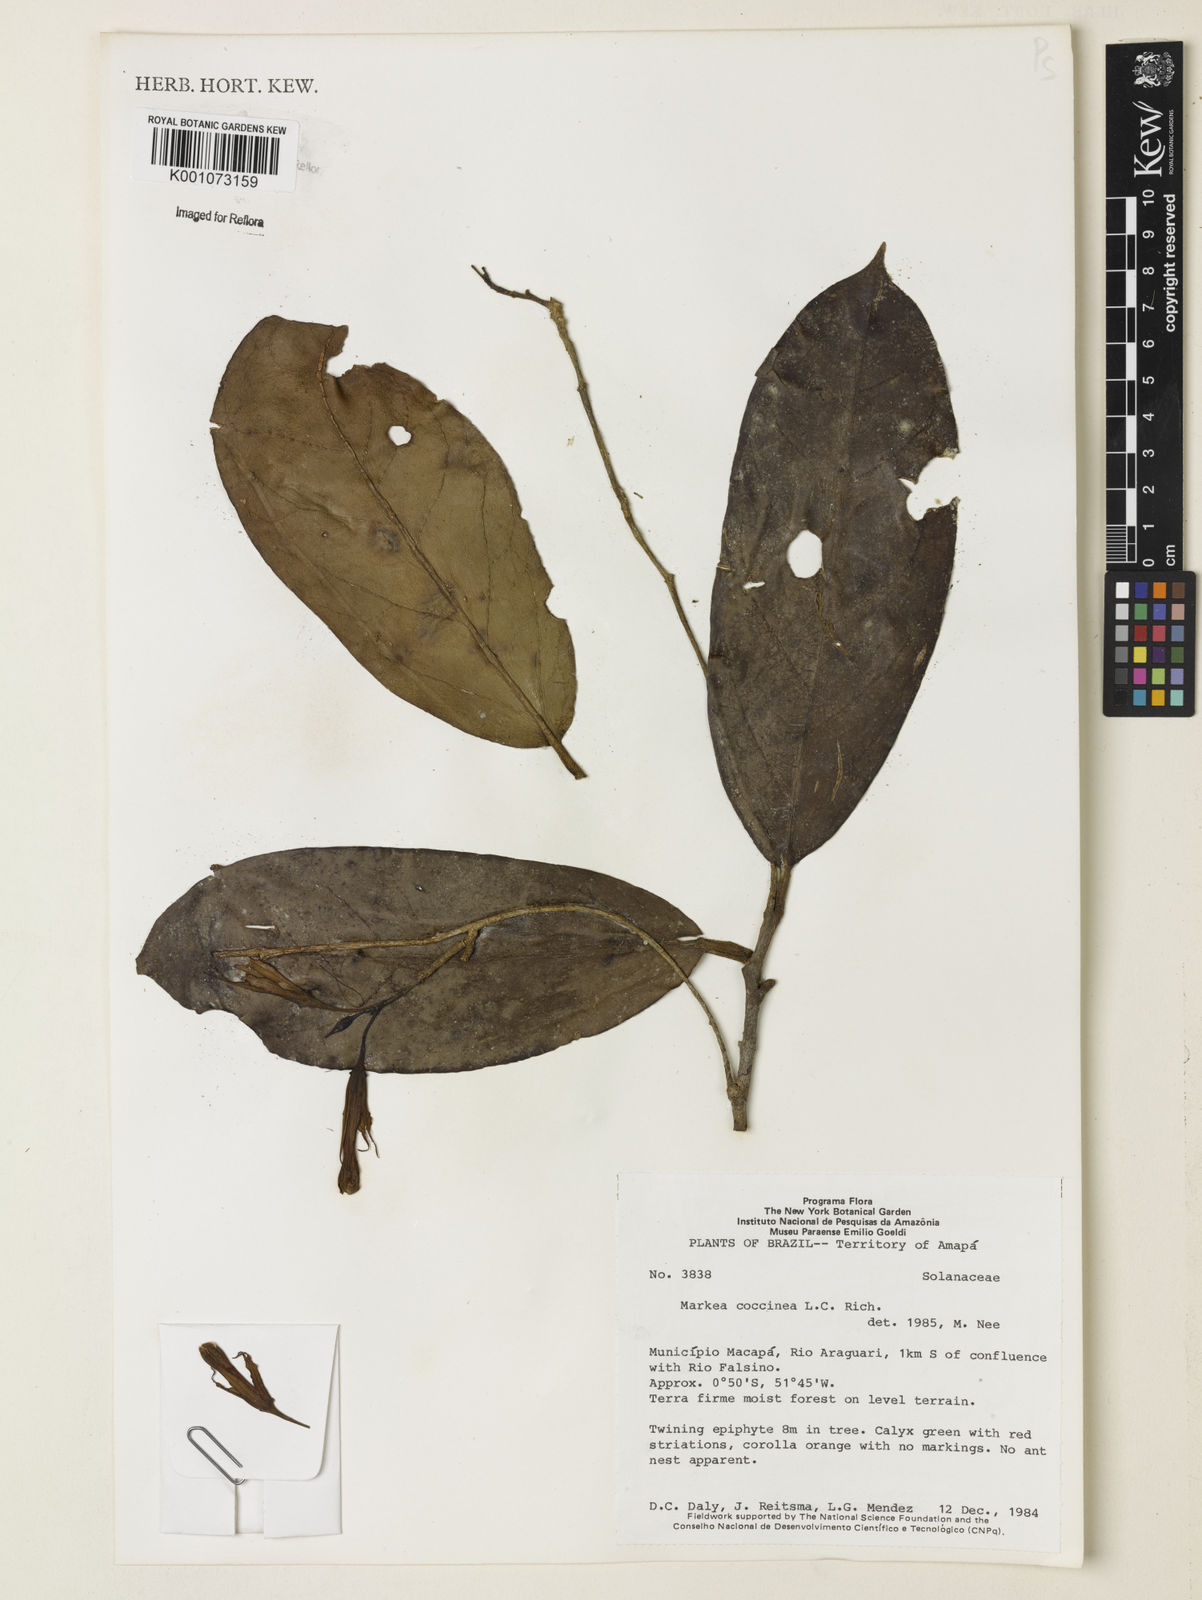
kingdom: Plantae
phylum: Tracheophyta
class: Magnoliopsida
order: Solanales
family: Solanaceae
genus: Markea
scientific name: Markea coccinea
